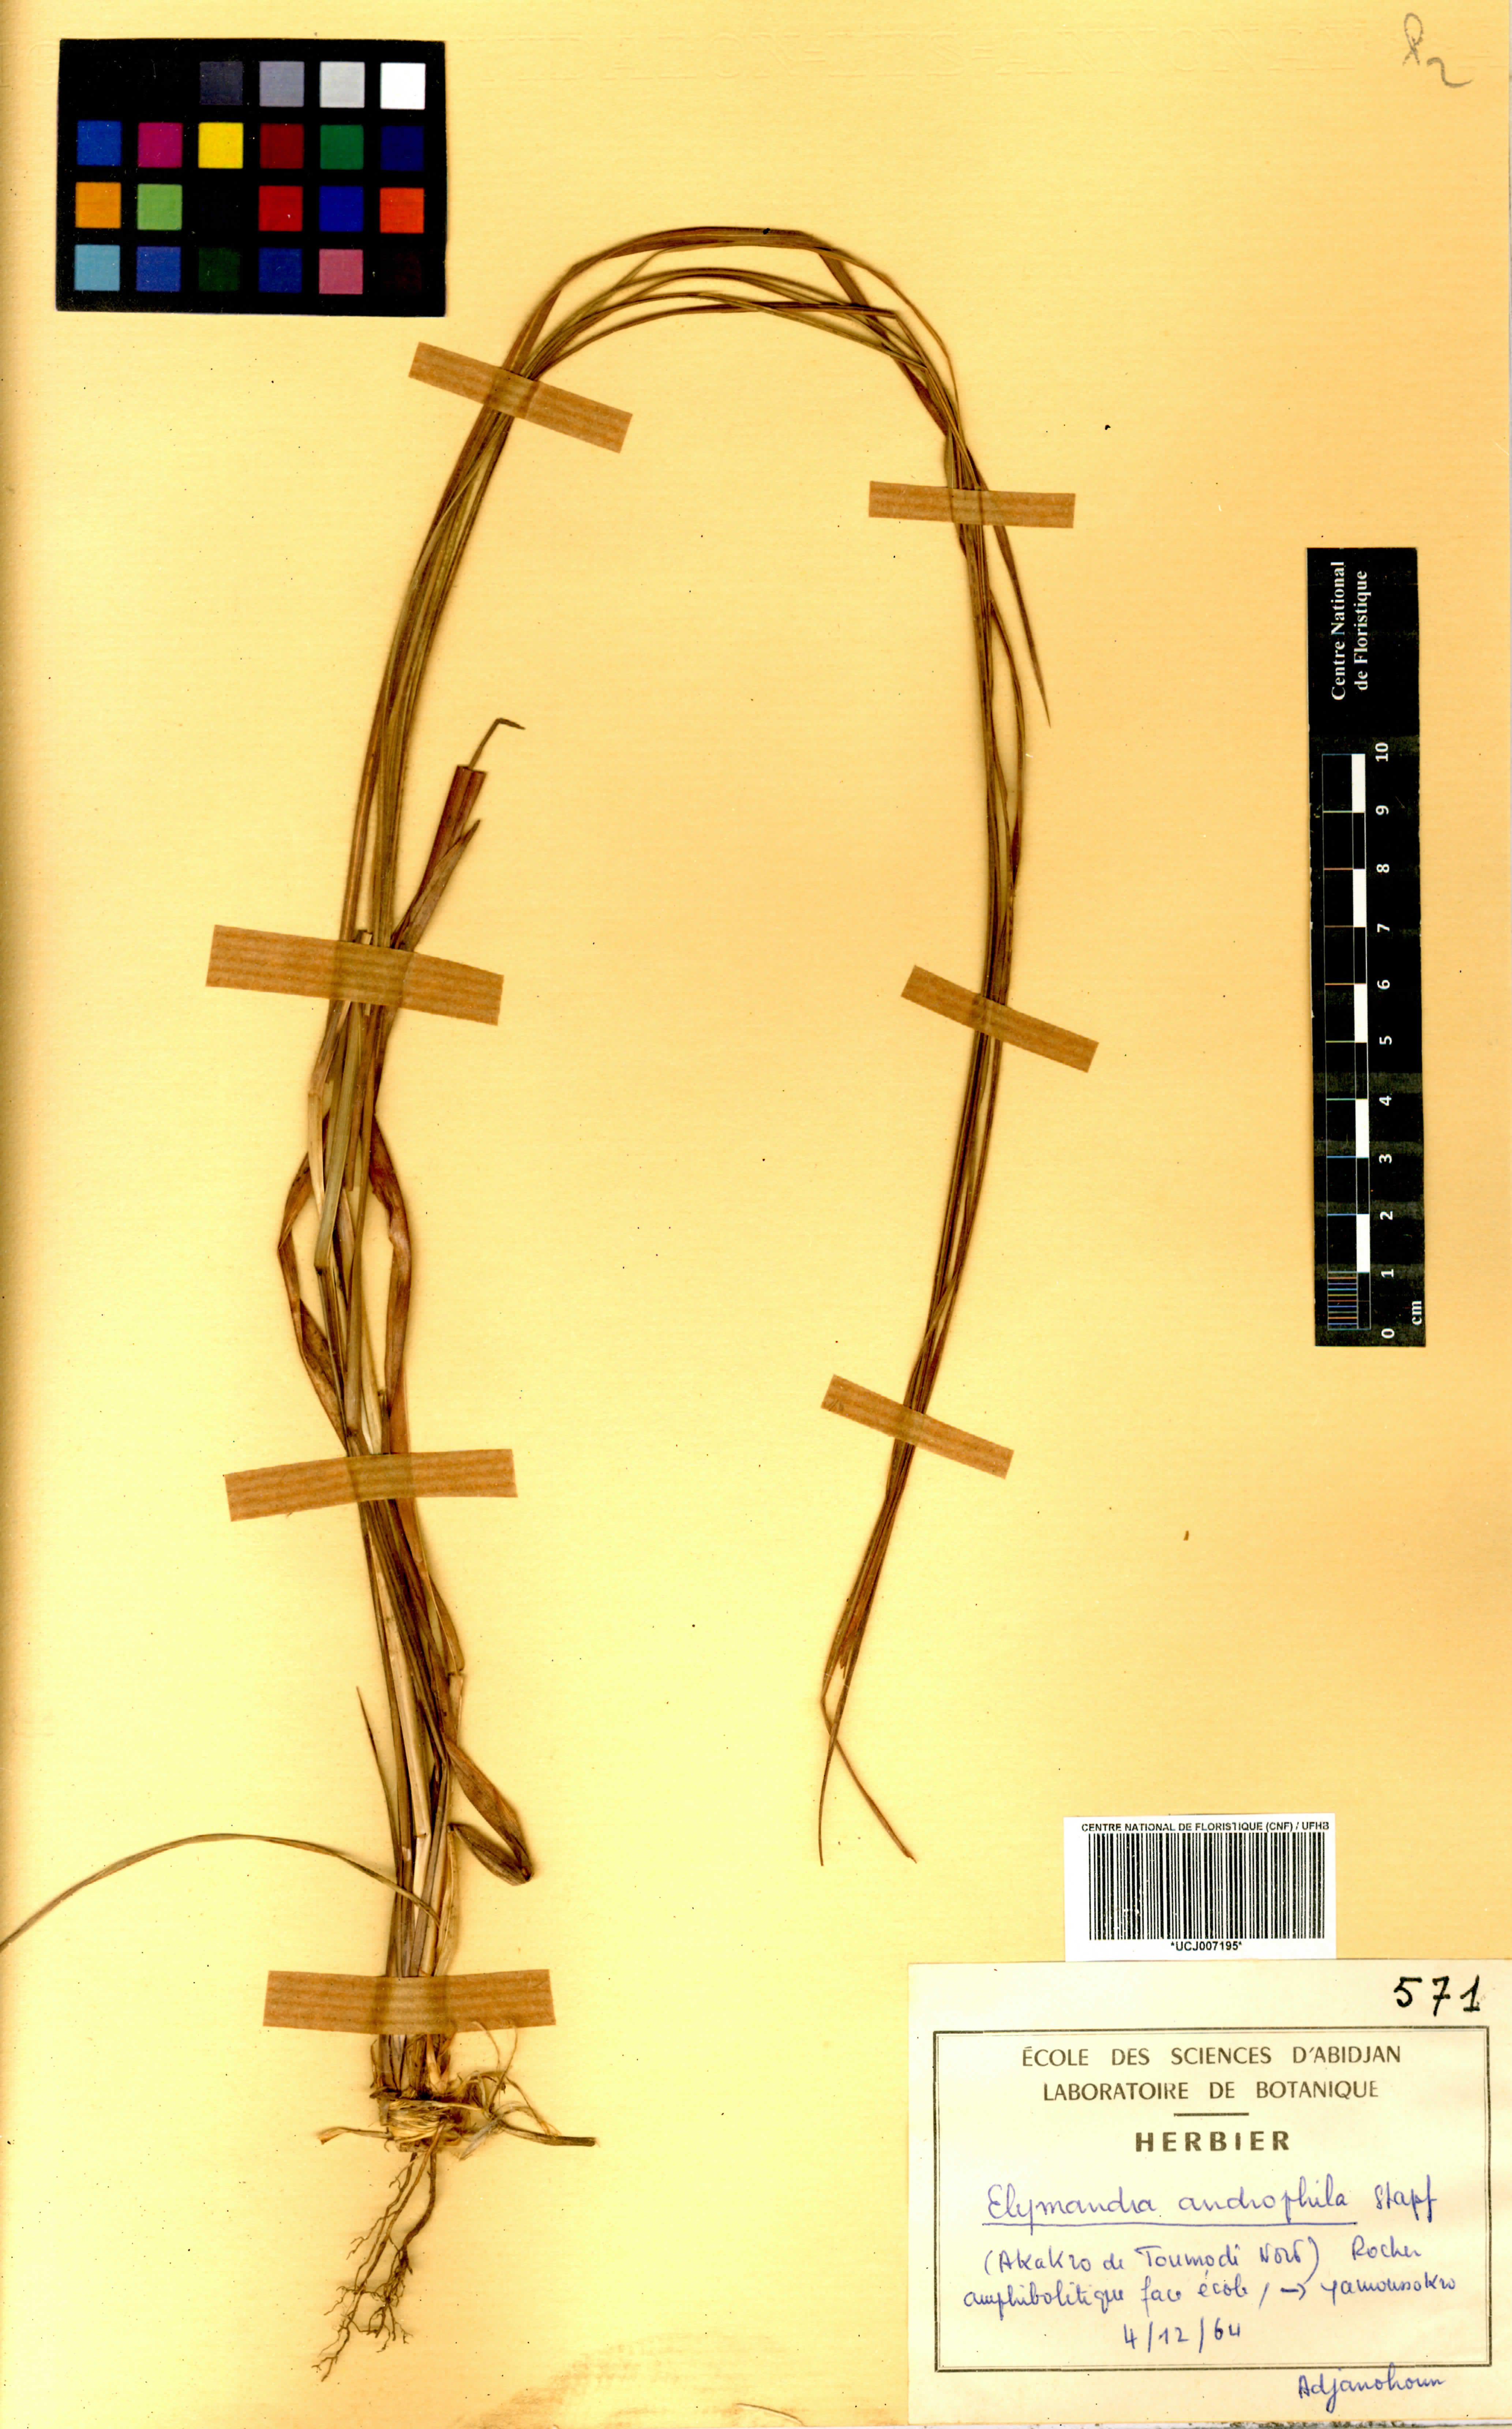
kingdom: Plantae
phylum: Tracheophyta
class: Liliopsida
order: Poales
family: Poaceae
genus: Elymandra
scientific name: Elymandra androphila
